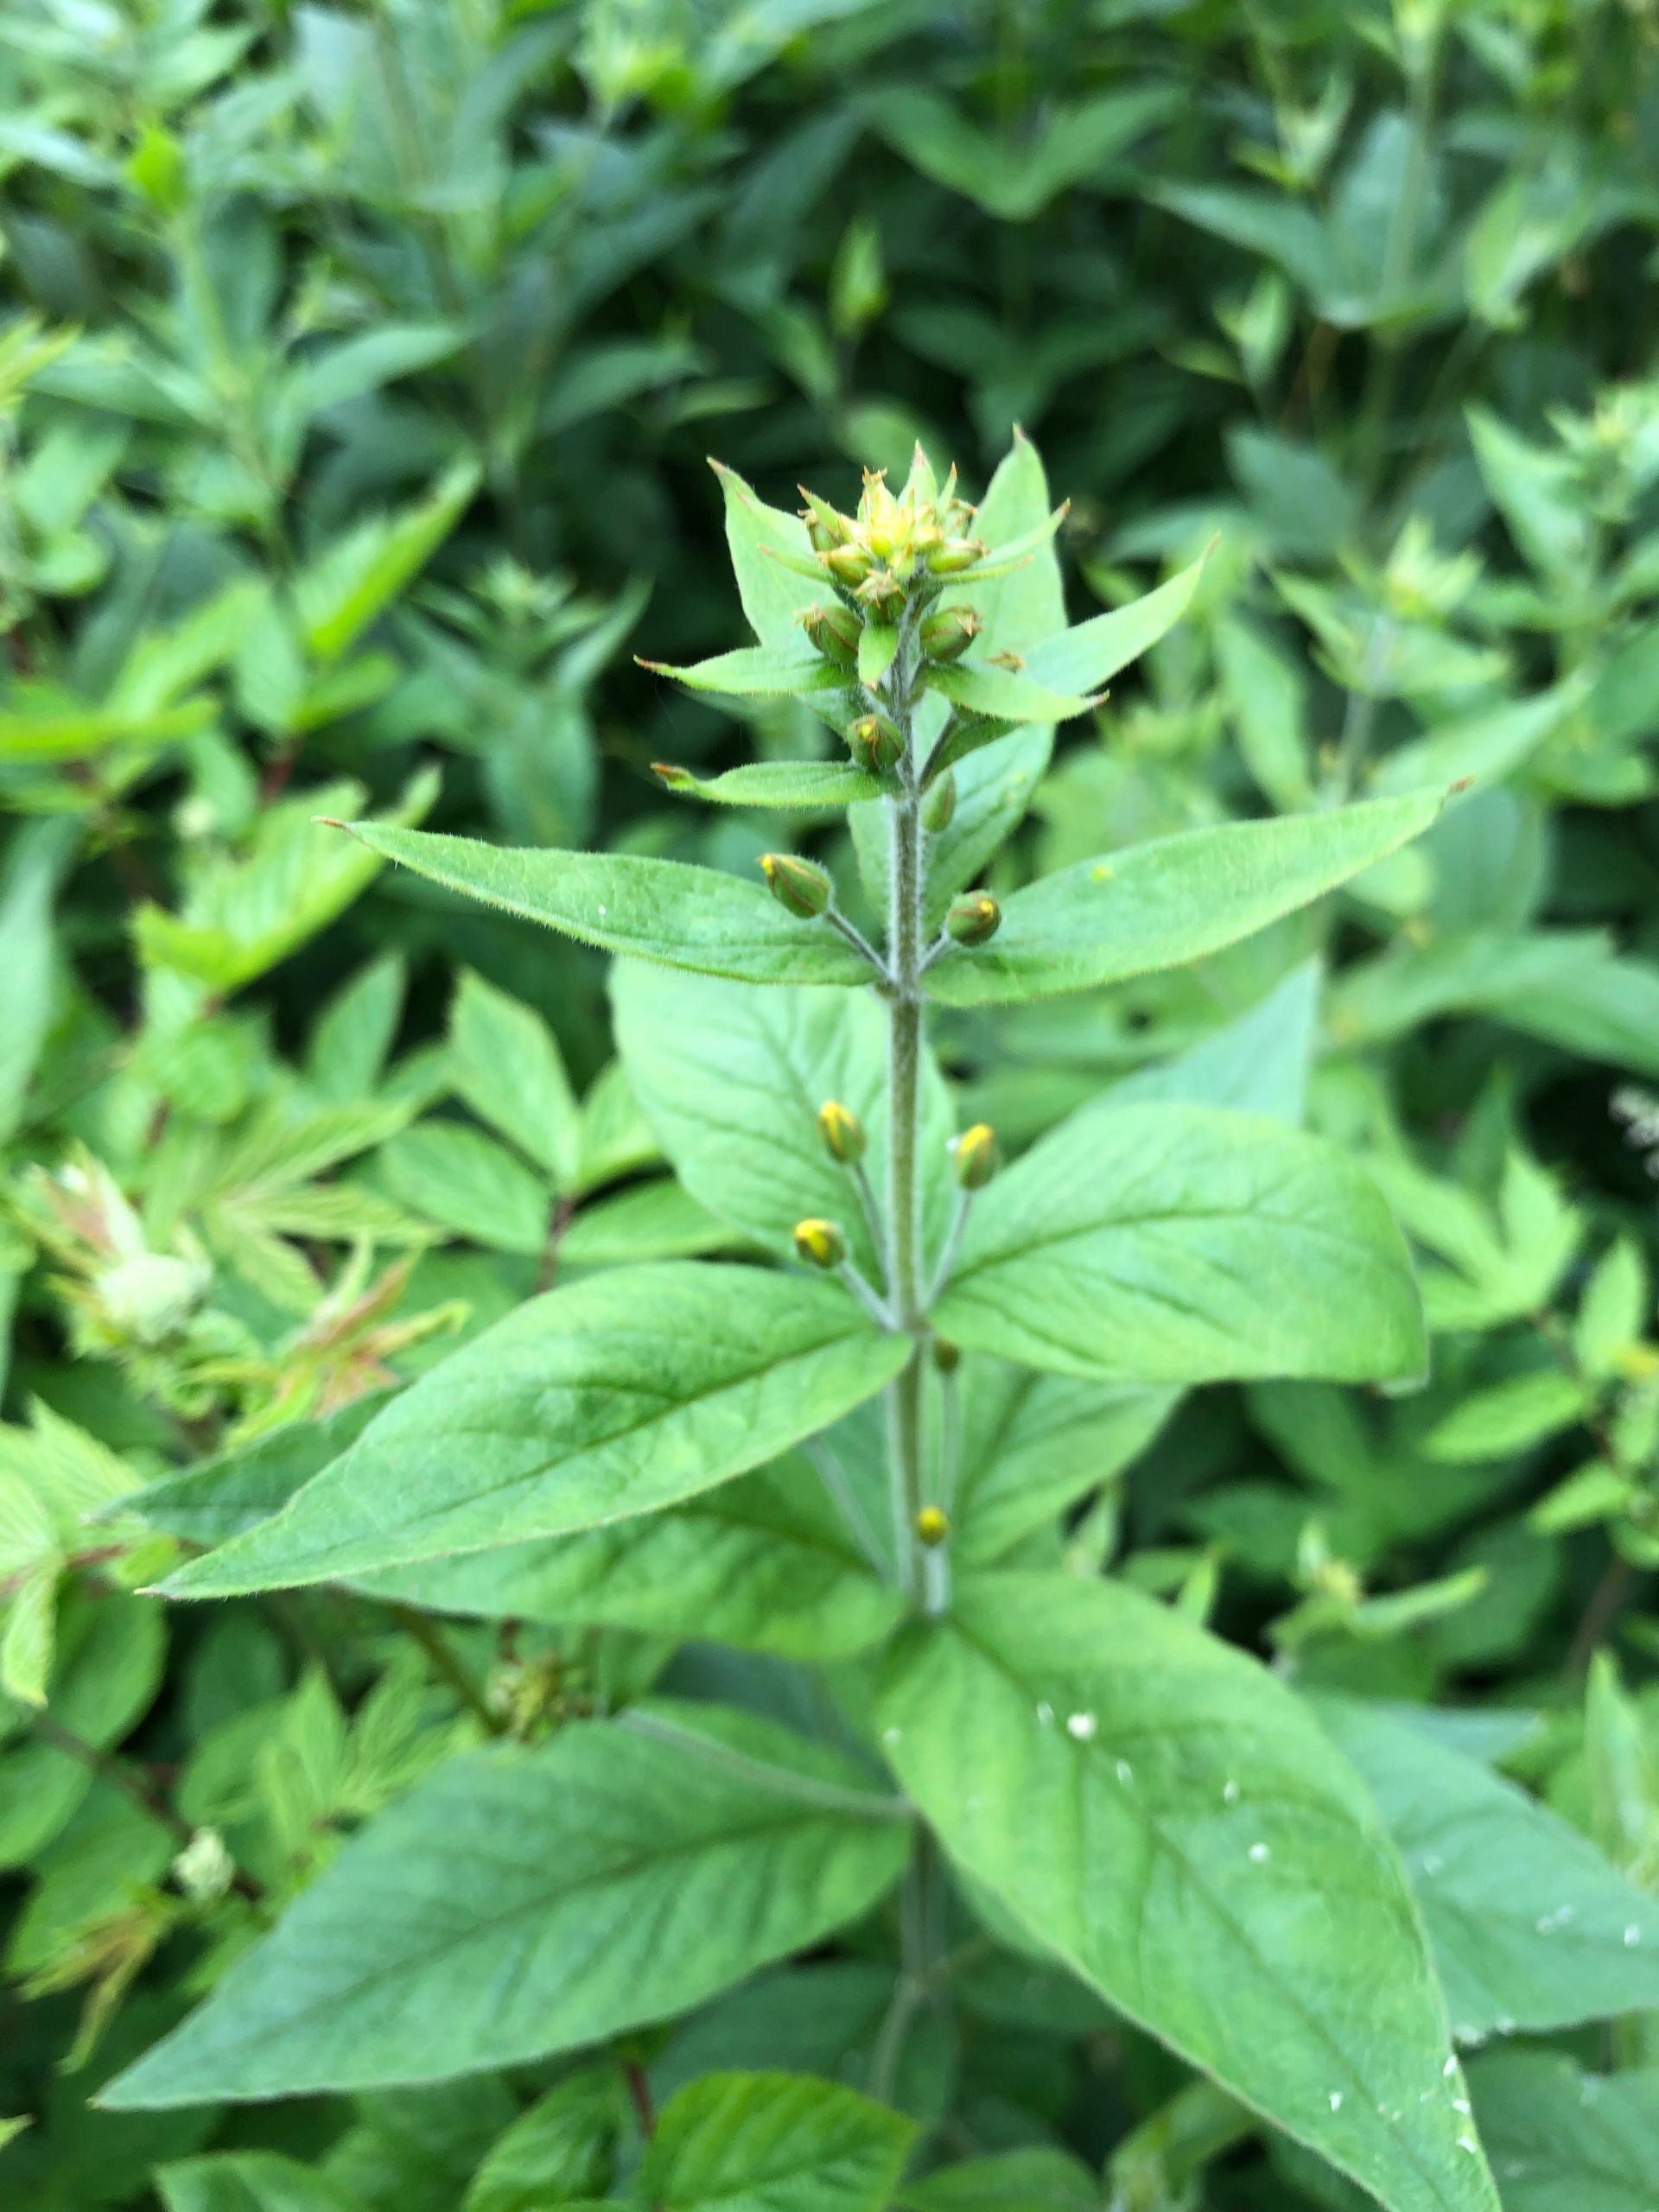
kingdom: Plantae
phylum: Tracheophyta
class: Magnoliopsida
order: Ericales
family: Primulaceae
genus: Lysimachia
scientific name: Lysimachia vulgaris
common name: Almindelig fredløs
